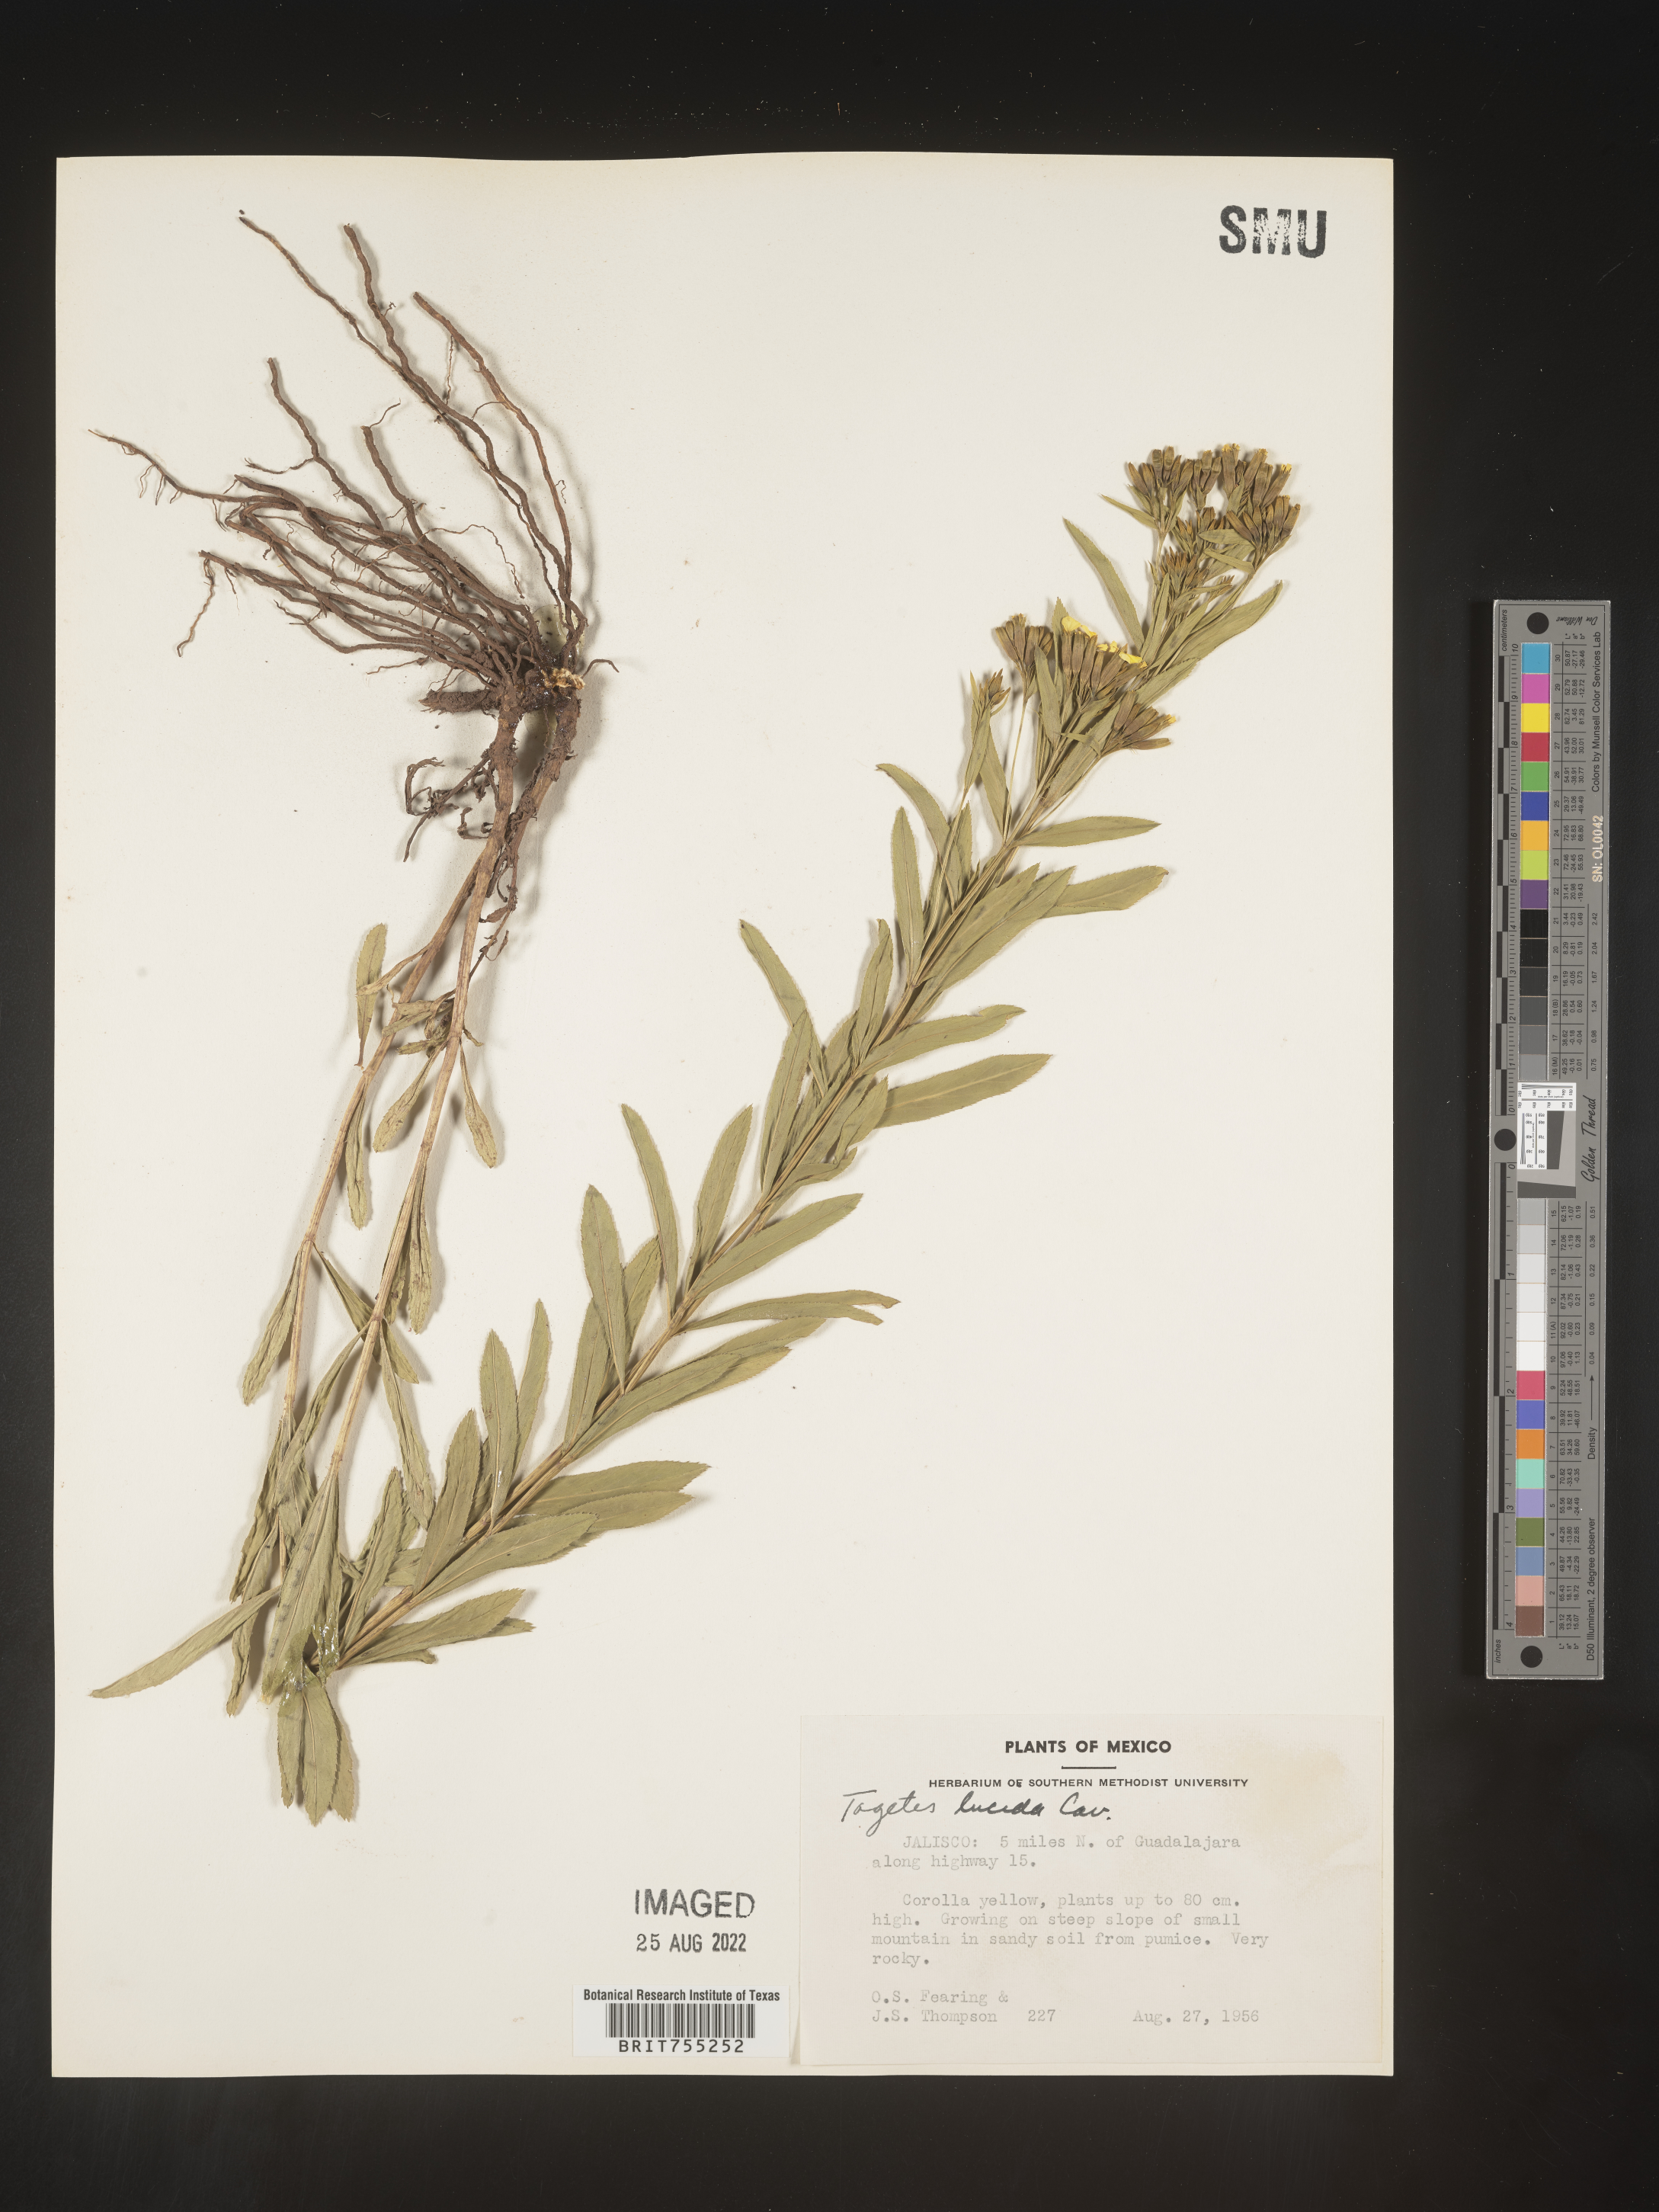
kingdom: Plantae
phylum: Tracheophyta
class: Magnoliopsida
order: Asterales
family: Asteraceae
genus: Tagetes
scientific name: Tagetes lucida
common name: Sweetscented marigold
